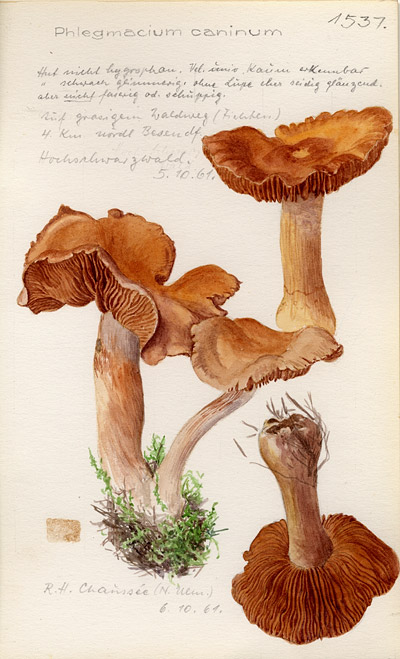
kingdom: Fungi
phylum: Basidiomycota
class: Agaricomycetes
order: Agaricales
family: Cortinariaceae
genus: Cortinarius
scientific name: Cortinarius caninus
